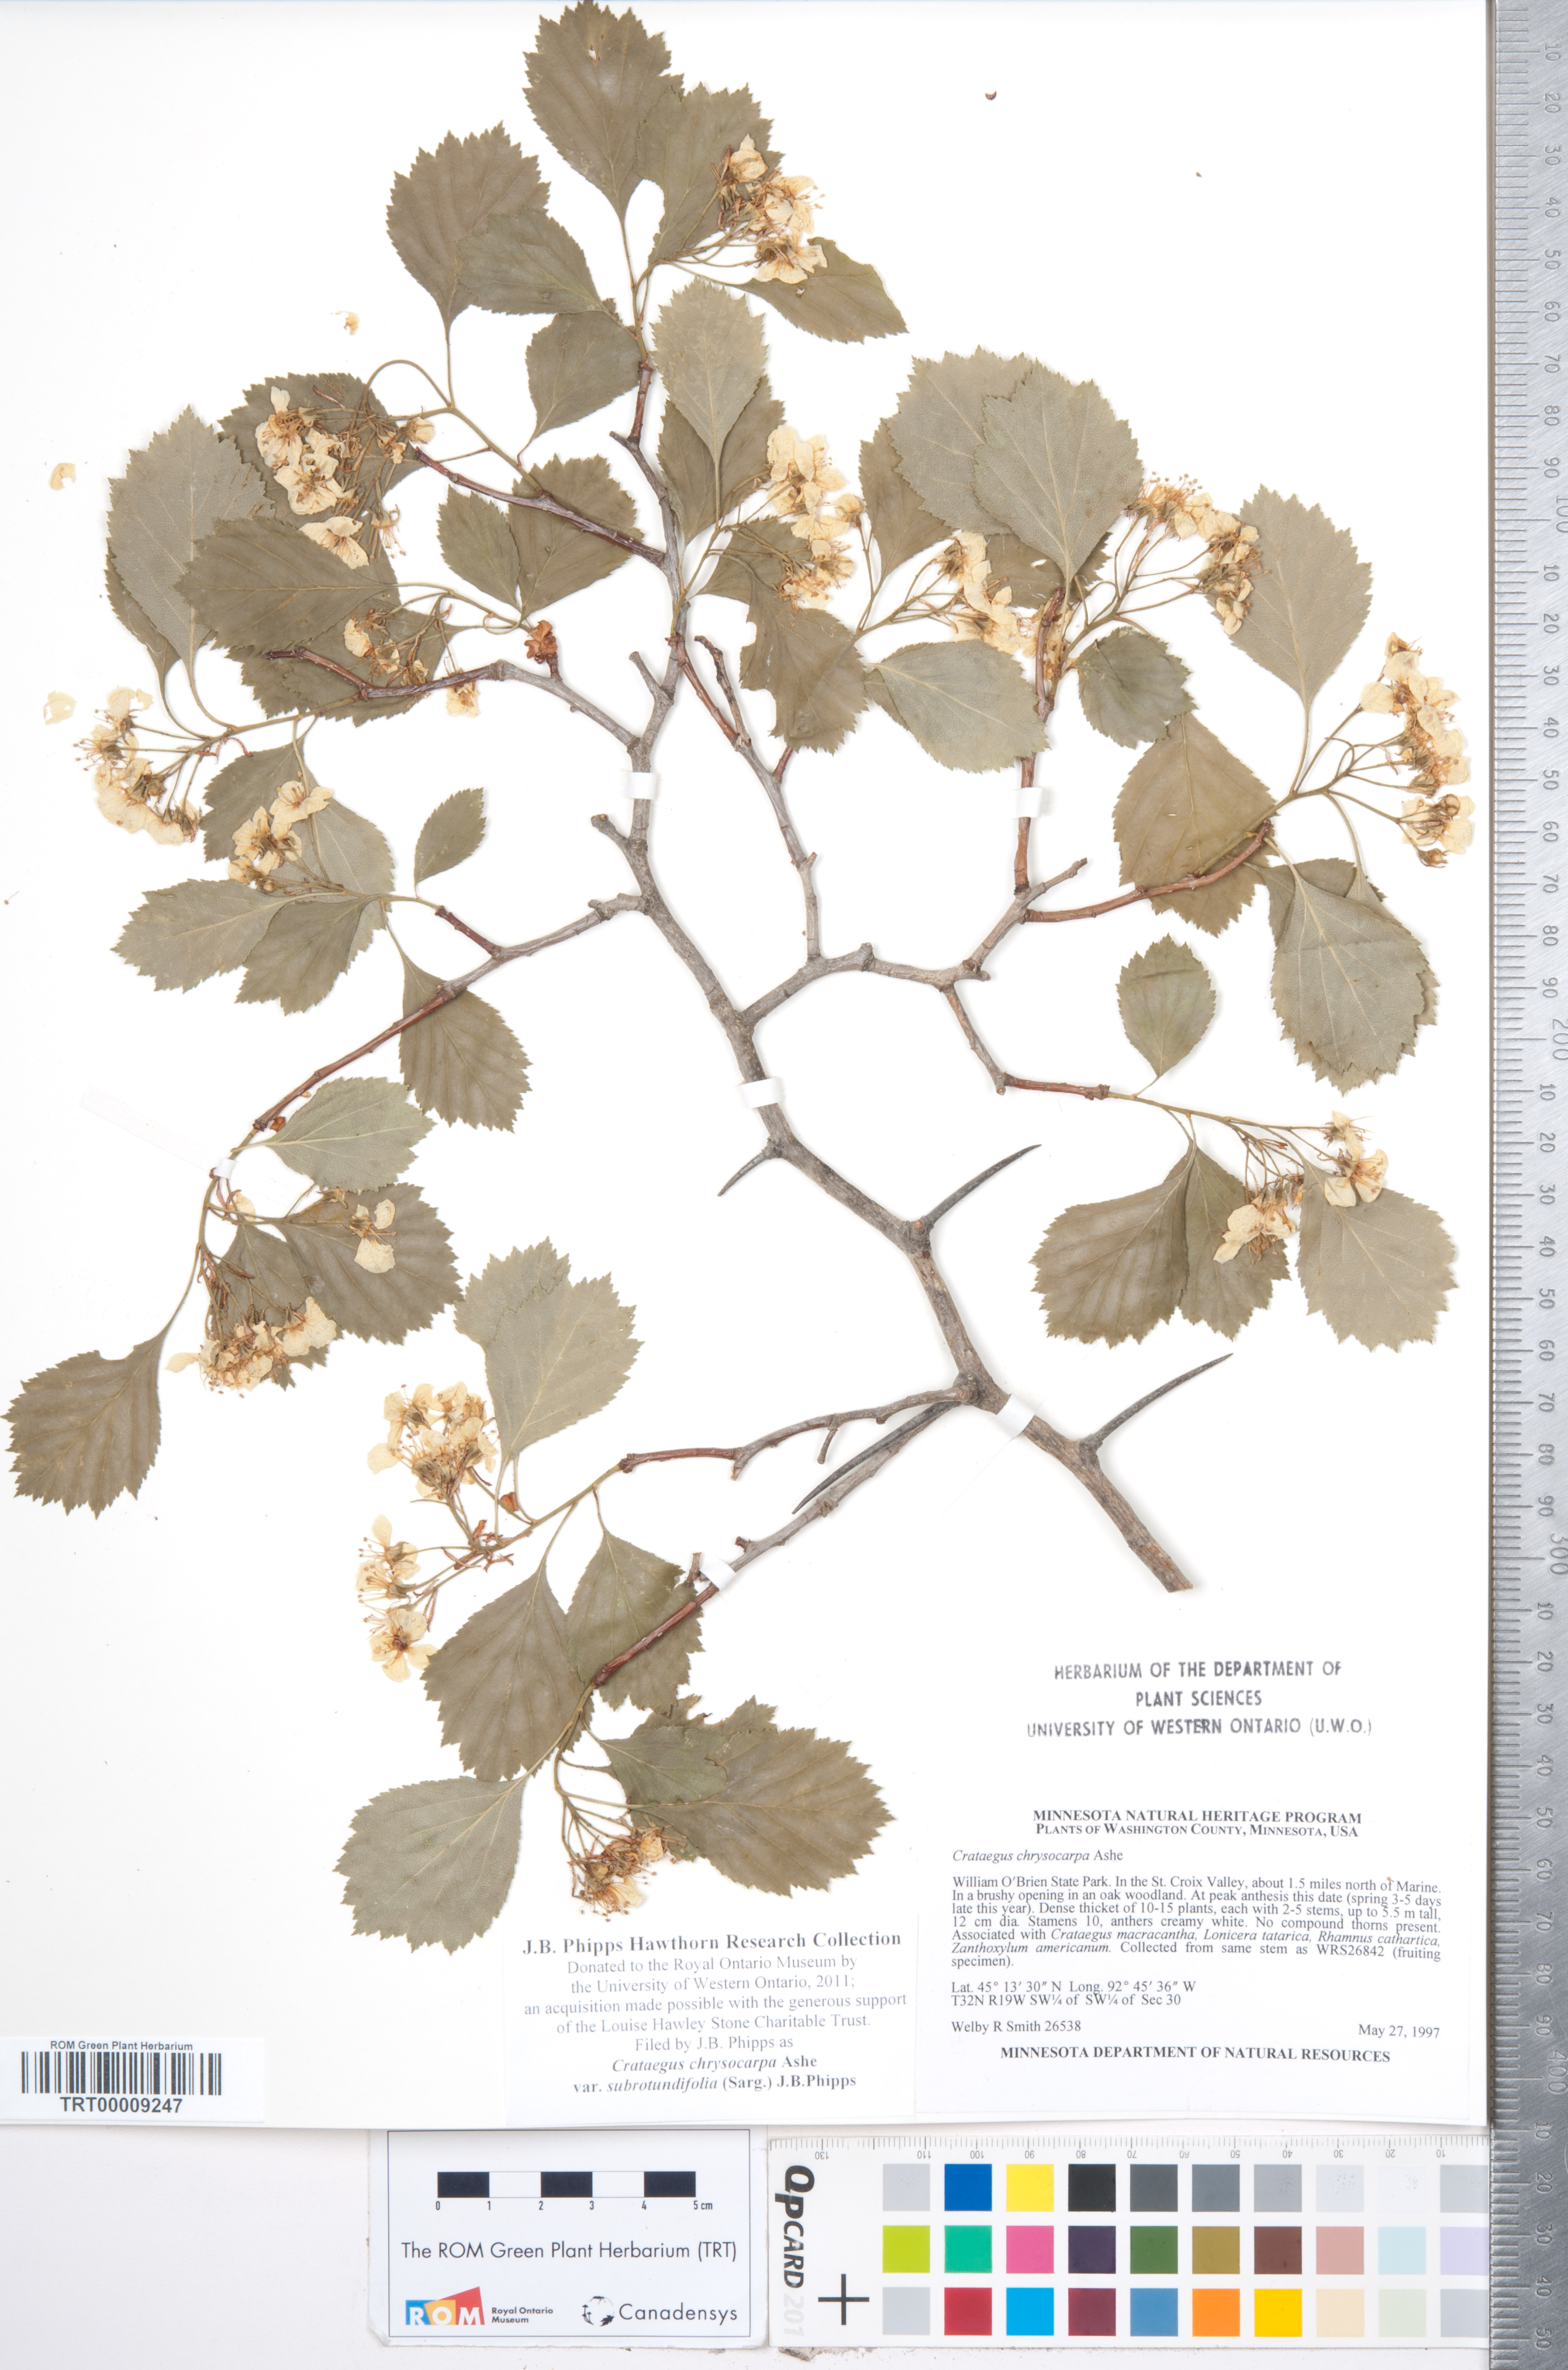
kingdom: Plantae
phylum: Tracheophyta
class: Magnoliopsida
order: Rosales
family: Rosaceae
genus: Crataegus
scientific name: Crataegus chrysocarpa
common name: Fire-berry hawthorn
